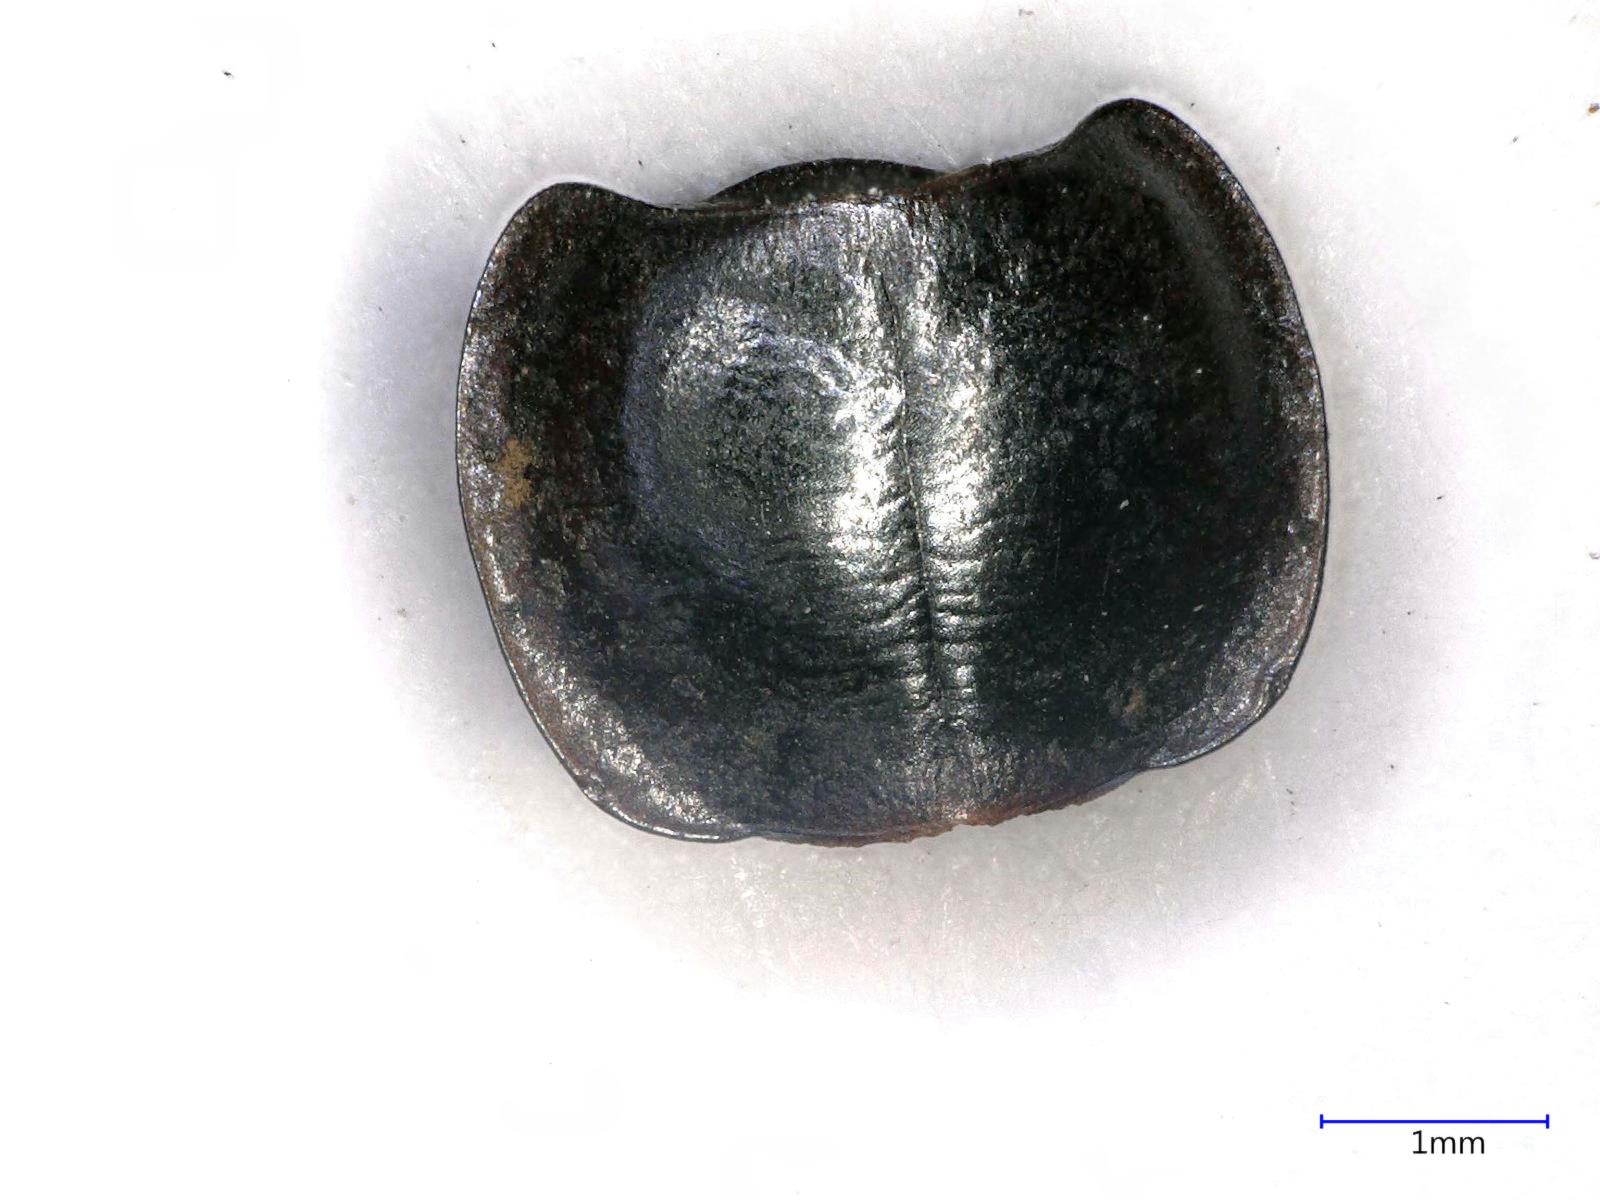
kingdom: Animalia
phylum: Arthropoda
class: Insecta
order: Coleoptera
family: Carabidae
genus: Tanystoma
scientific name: Tanystoma maculicolle
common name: Tule beetle
